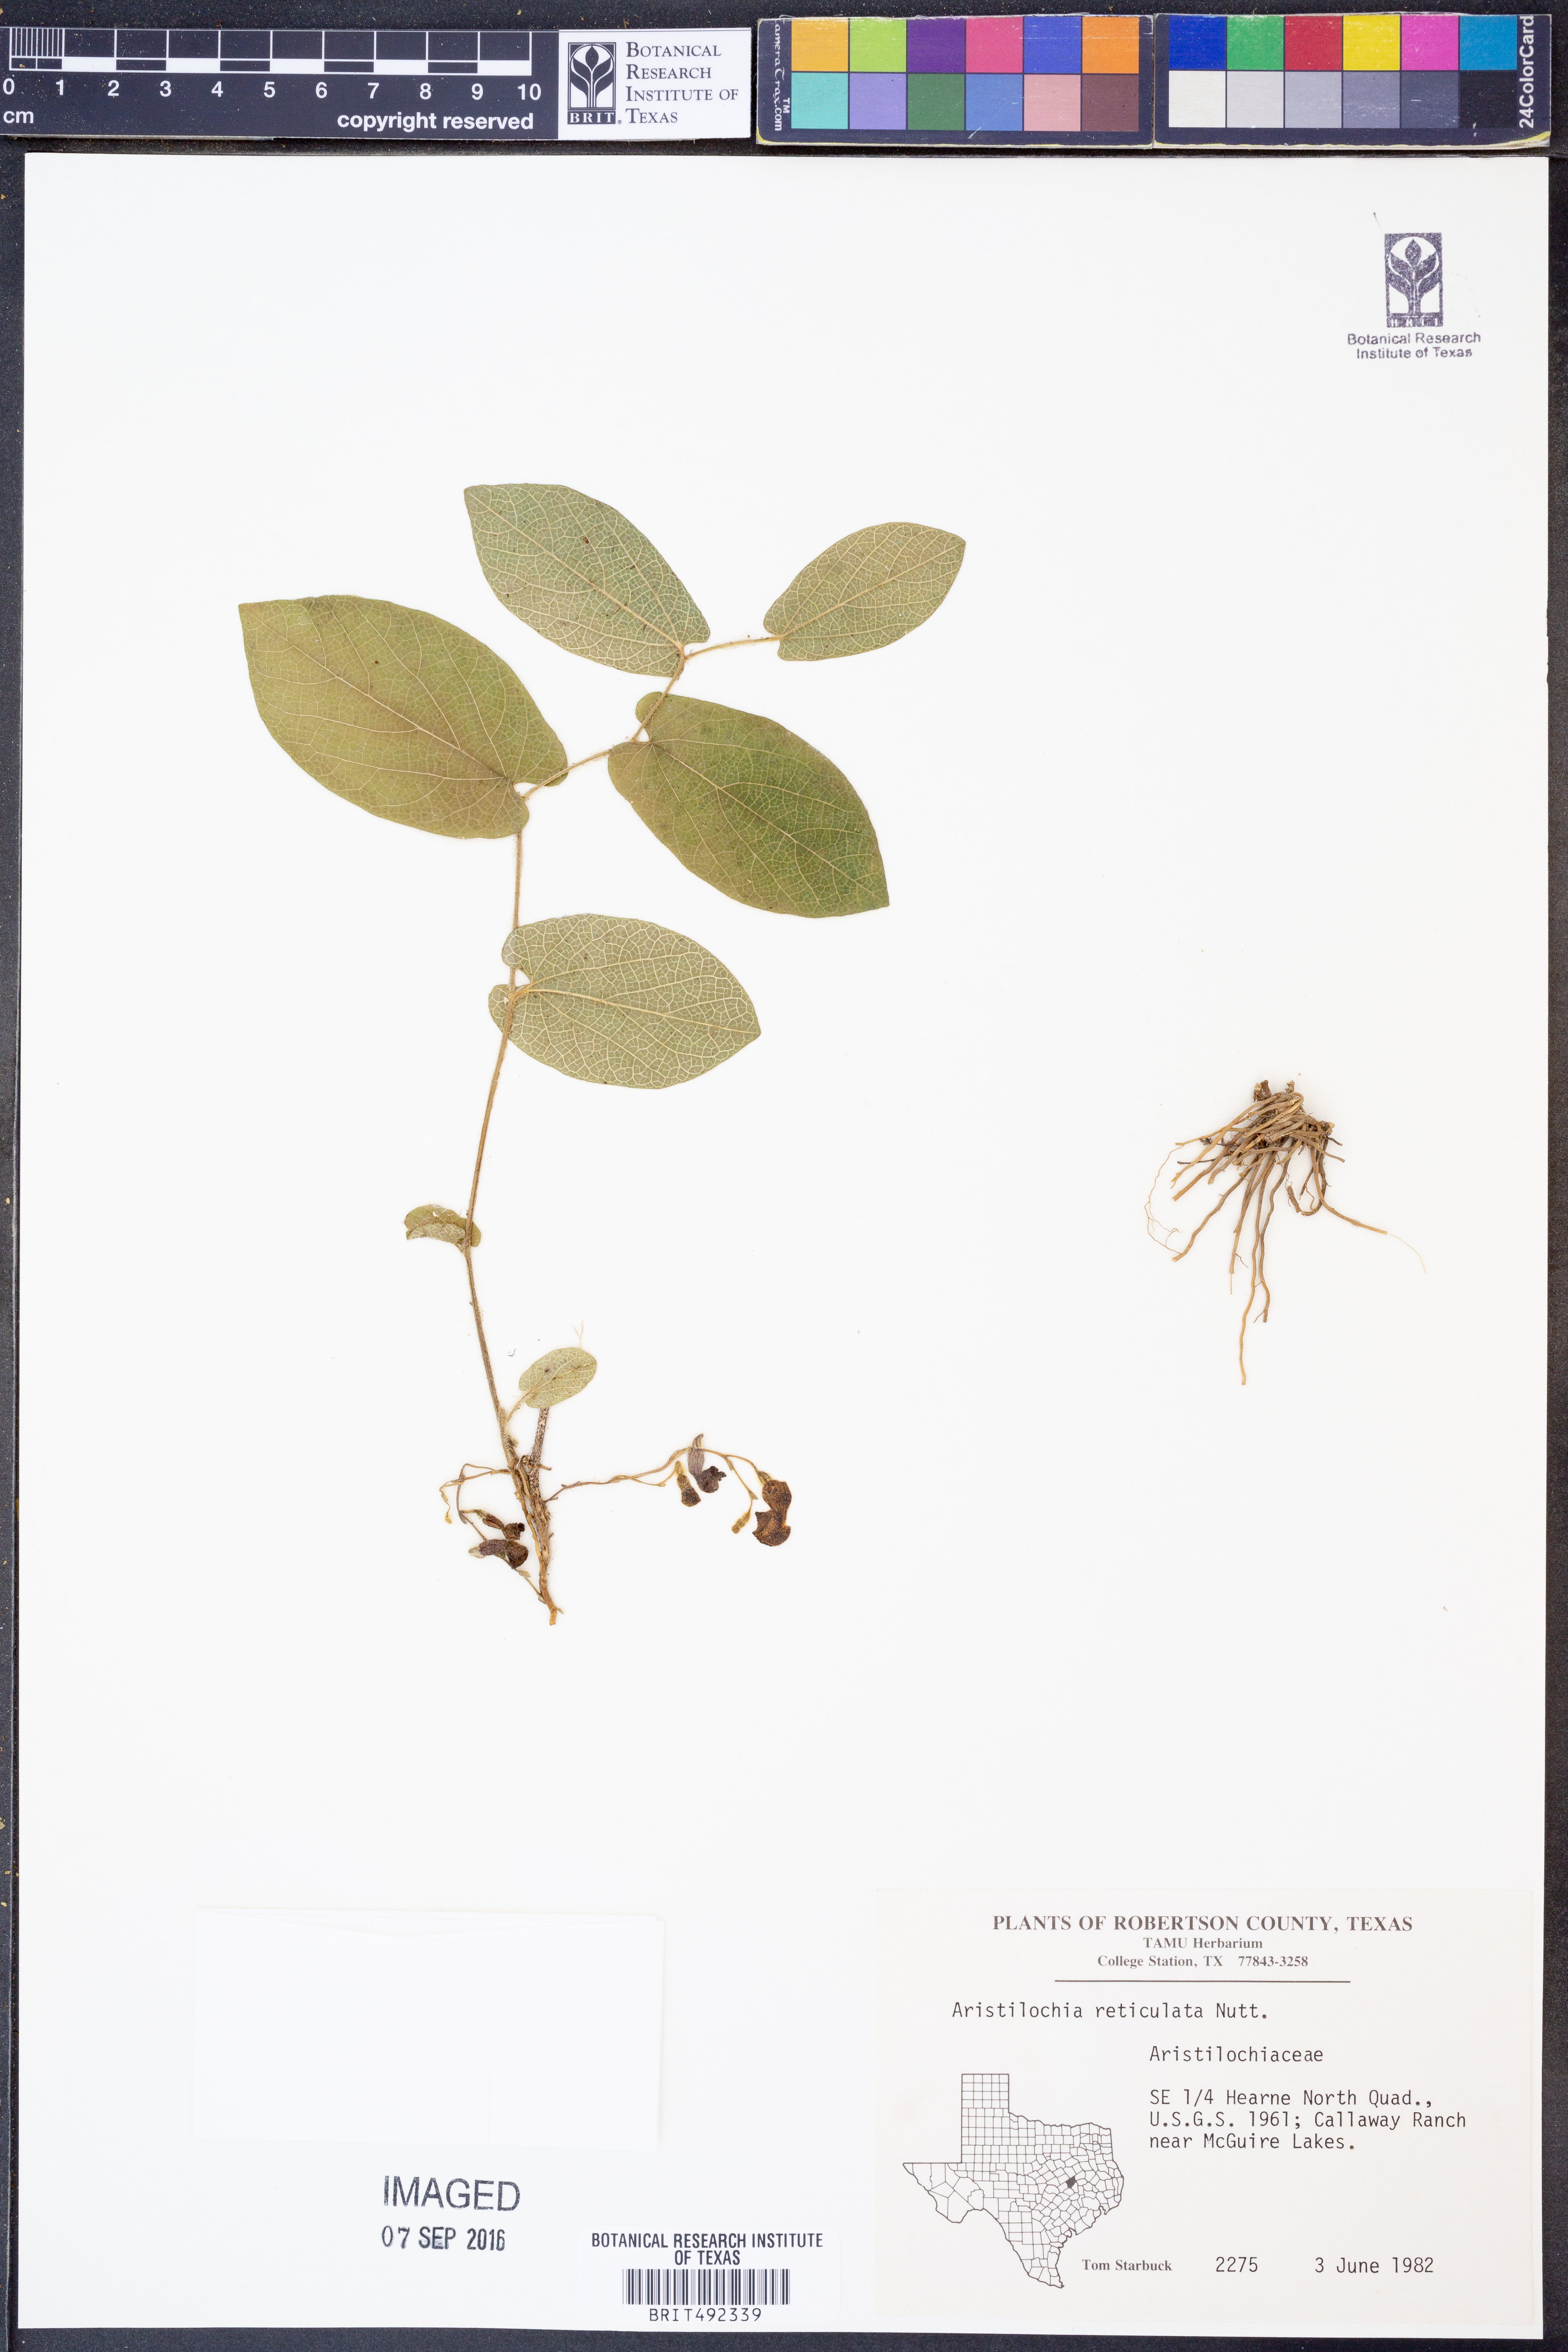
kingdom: Plantae
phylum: Tracheophyta
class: Magnoliopsida
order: Piperales
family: Aristolochiaceae
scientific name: Aristolochiaceae
